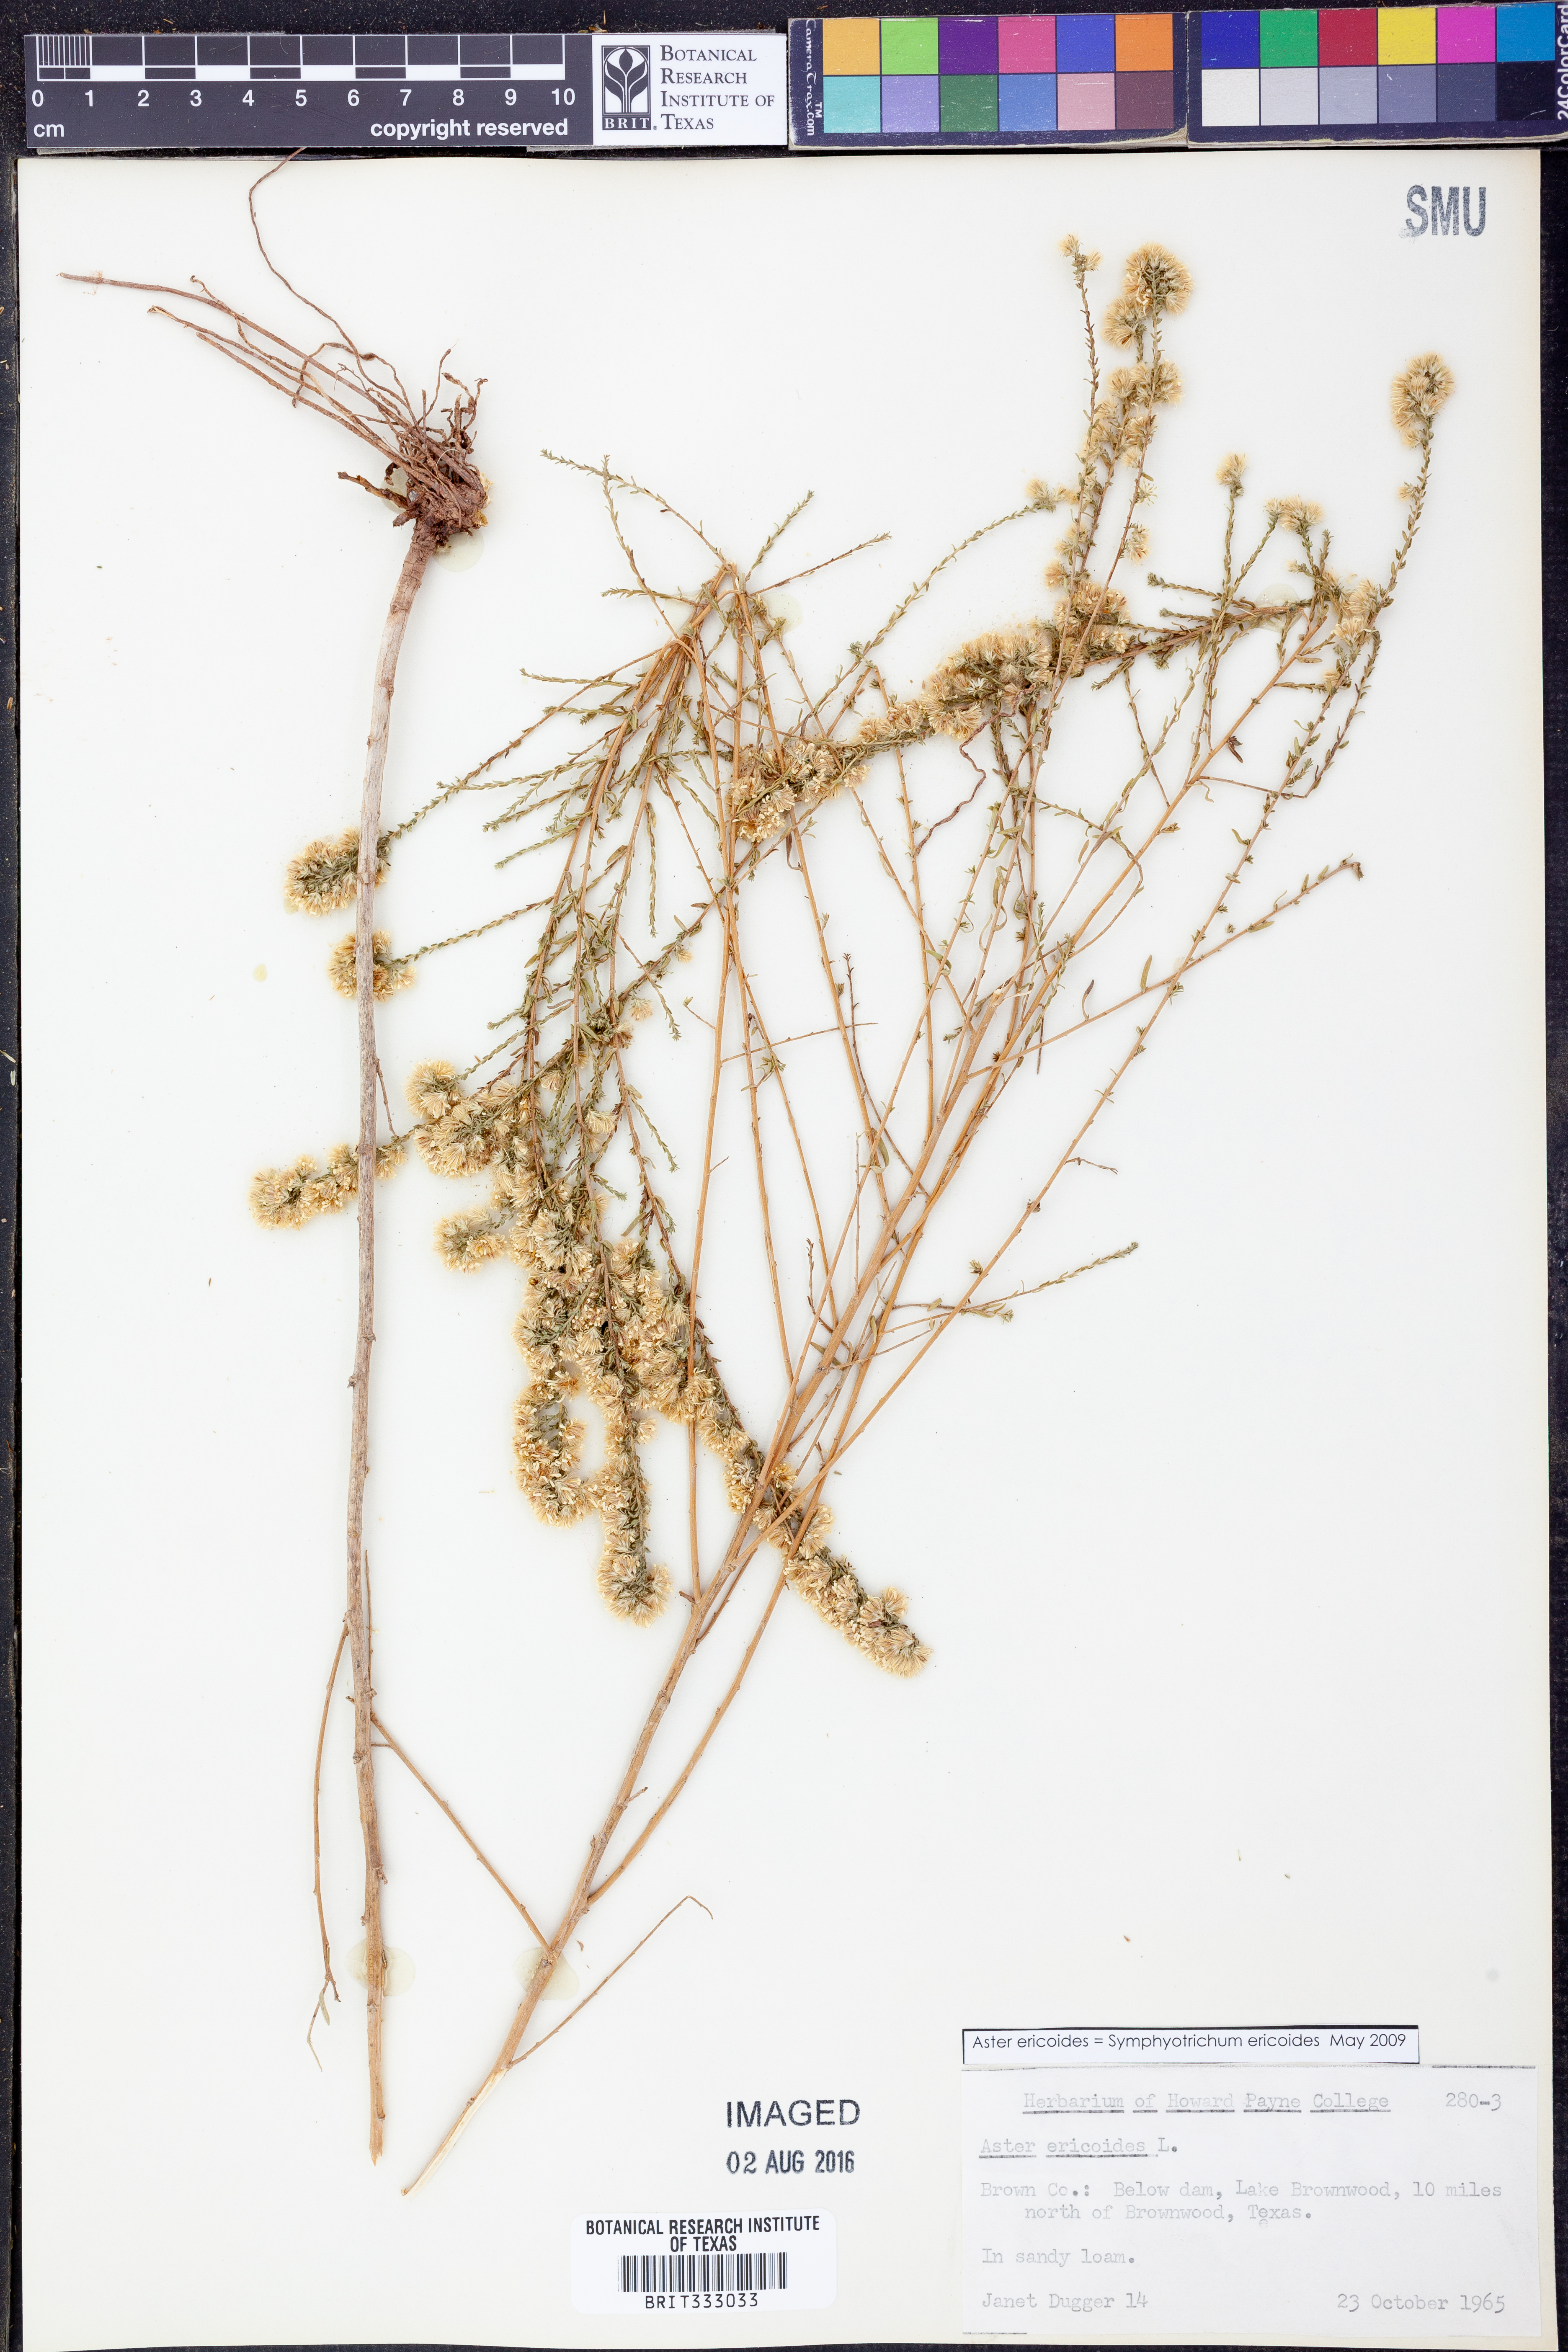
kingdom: Plantae
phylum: Tracheophyta
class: Magnoliopsida
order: Asterales
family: Asteraceae
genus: Symphyotrichum
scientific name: Symphyotrichum ericoides
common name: Heath aster
